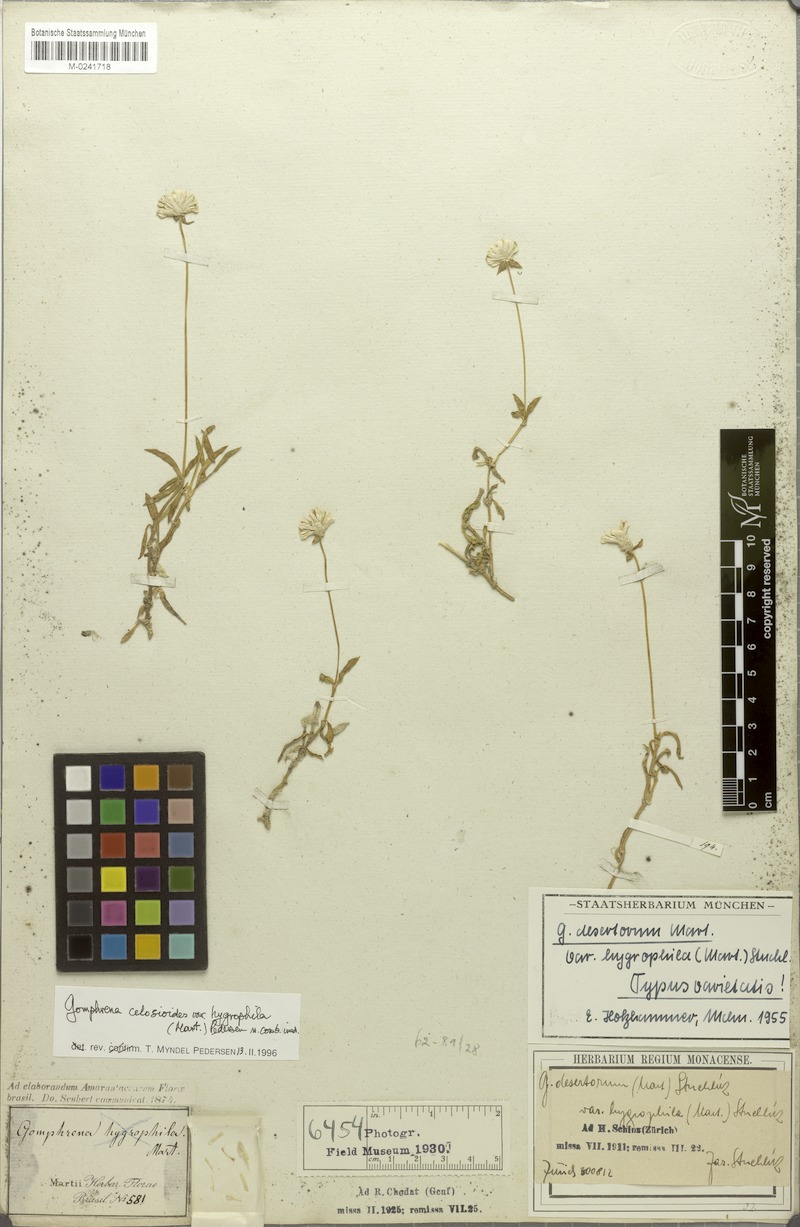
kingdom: Plantae
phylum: Tracheophyta
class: Magnoliopsida
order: Caryophyllales
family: Amaranthaceae
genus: Gomphrena
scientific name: Gomphrena celosioides
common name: Gomphrena-weed
